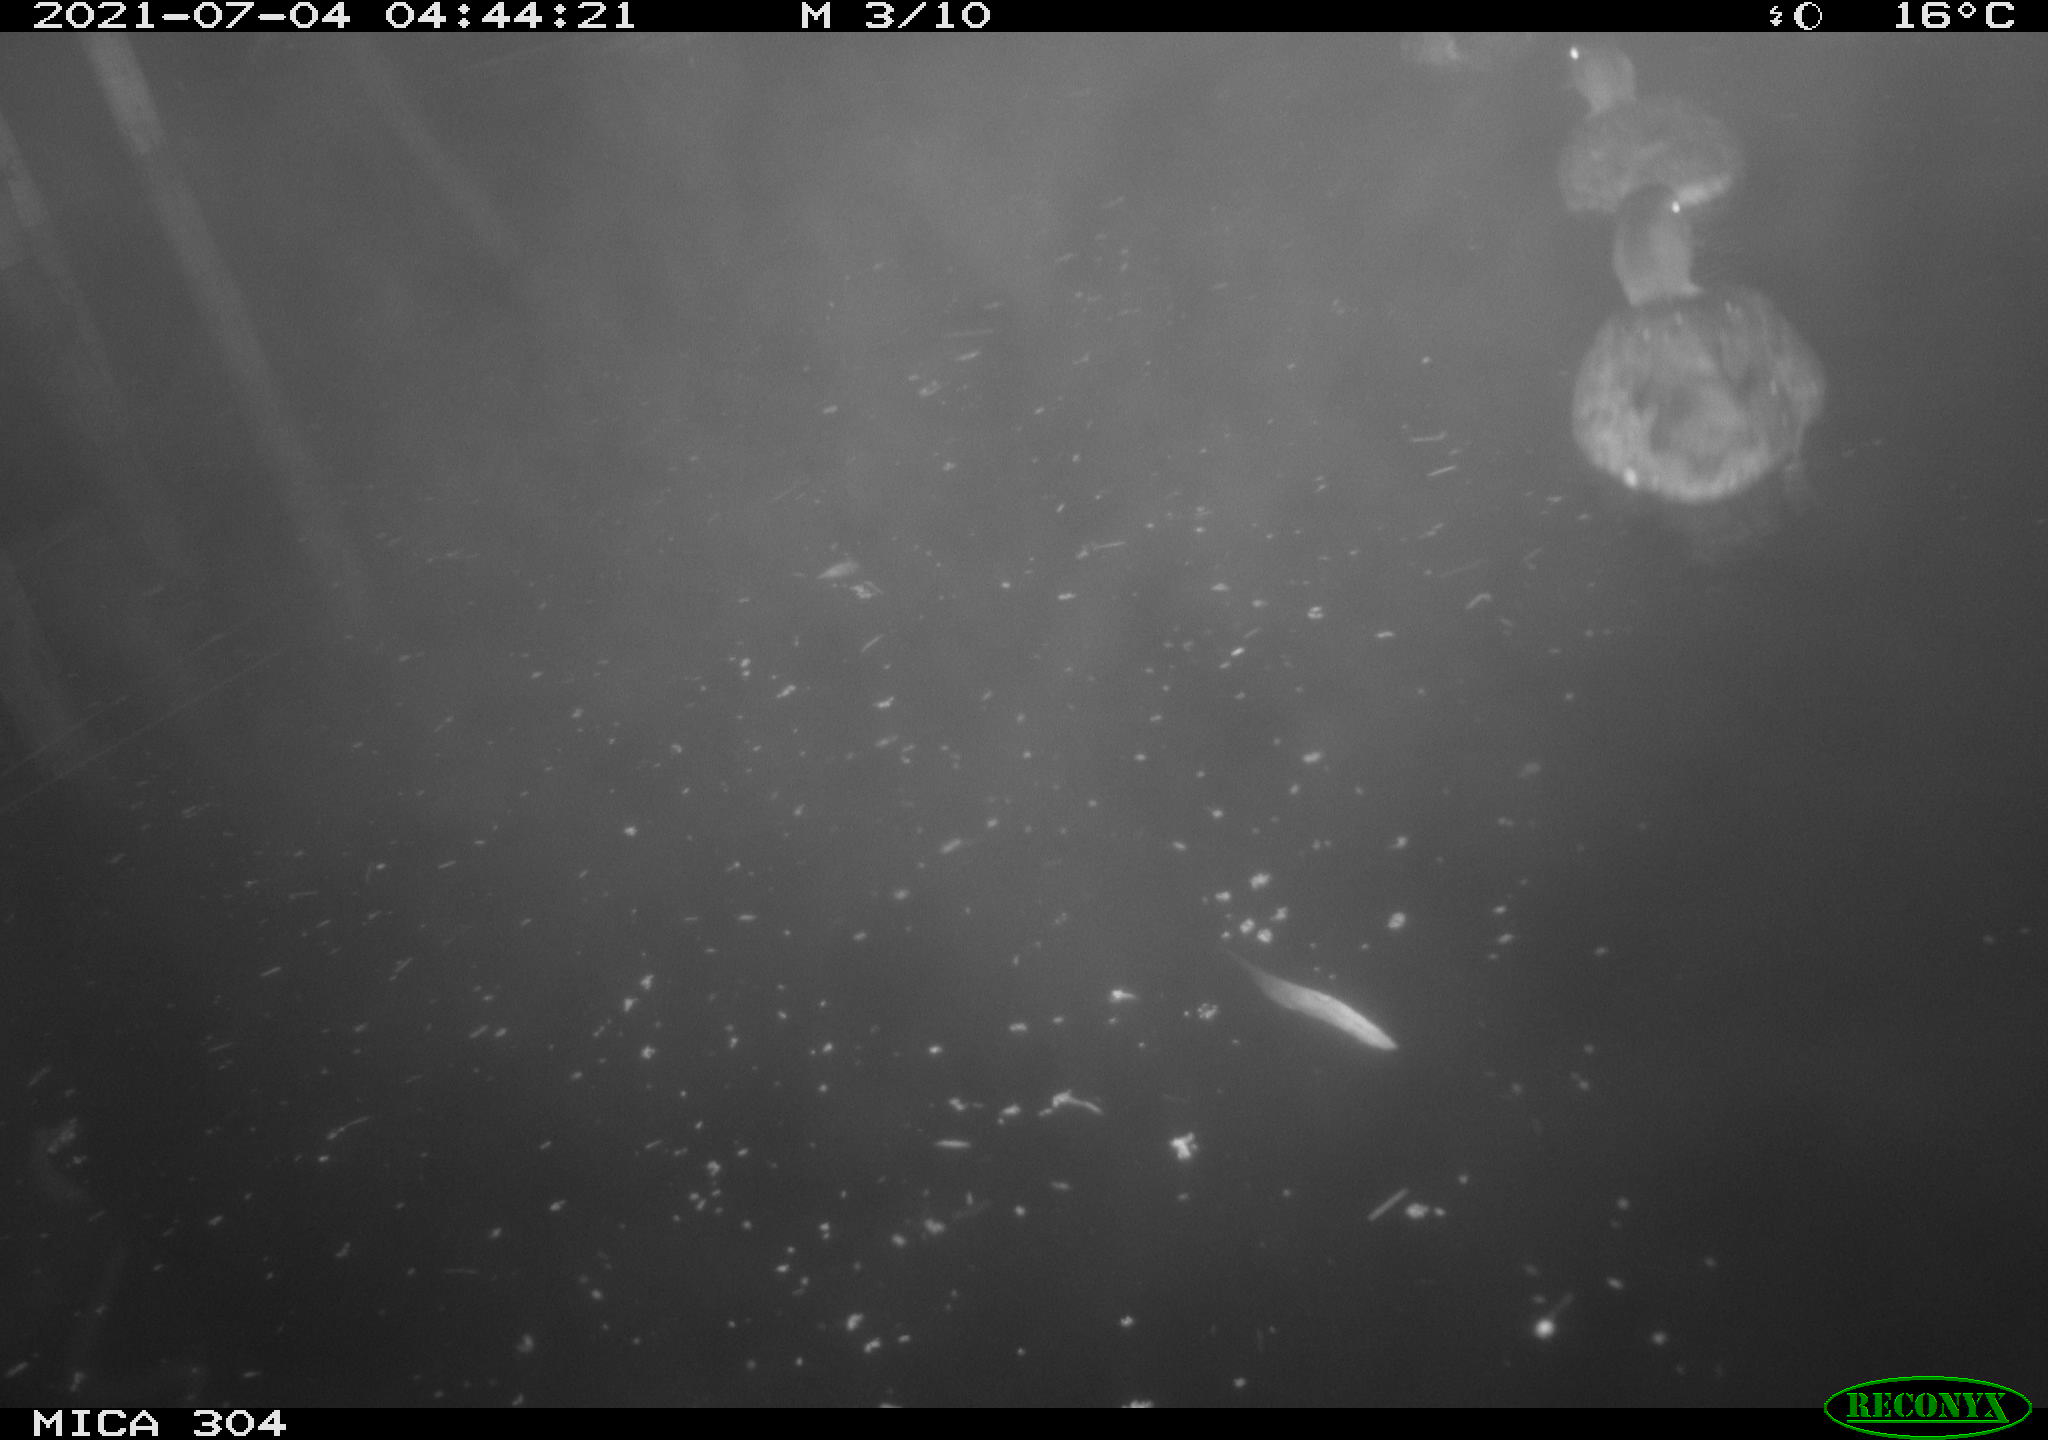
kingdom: Animalia
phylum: Chordata
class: Aves
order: Anseriformes
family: Anatidae
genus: Mareca
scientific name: Mareca strepera
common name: Gadwall
